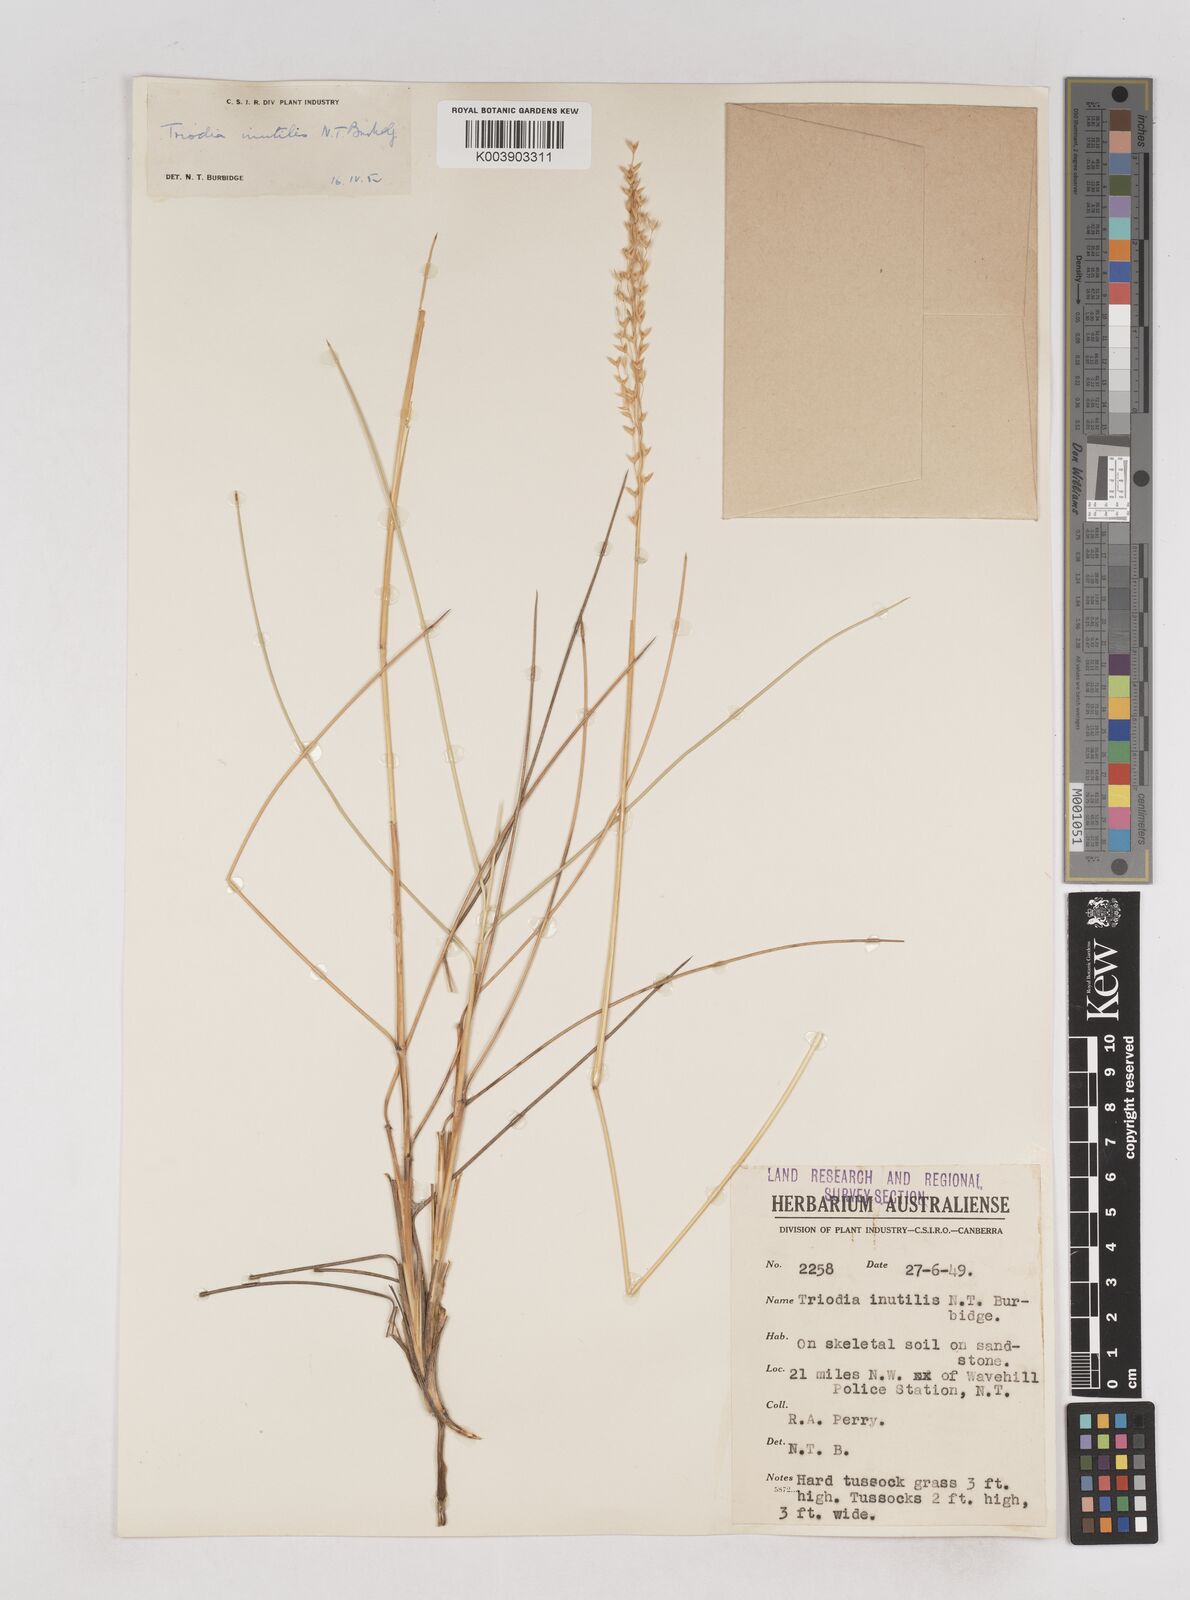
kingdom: Plantae
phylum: Tracheophyta
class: Liliopsida
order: Poales
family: Poaceae
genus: Triodia
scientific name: Triodia inutilis
